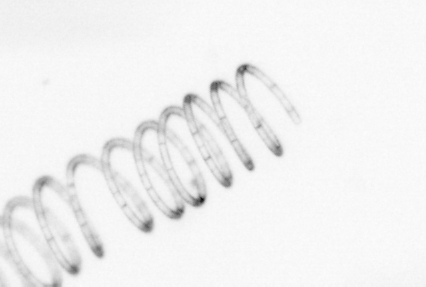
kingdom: Chromista
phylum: Ochrophyta
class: Bacillariophyceae
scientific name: Bacillariophyceae
